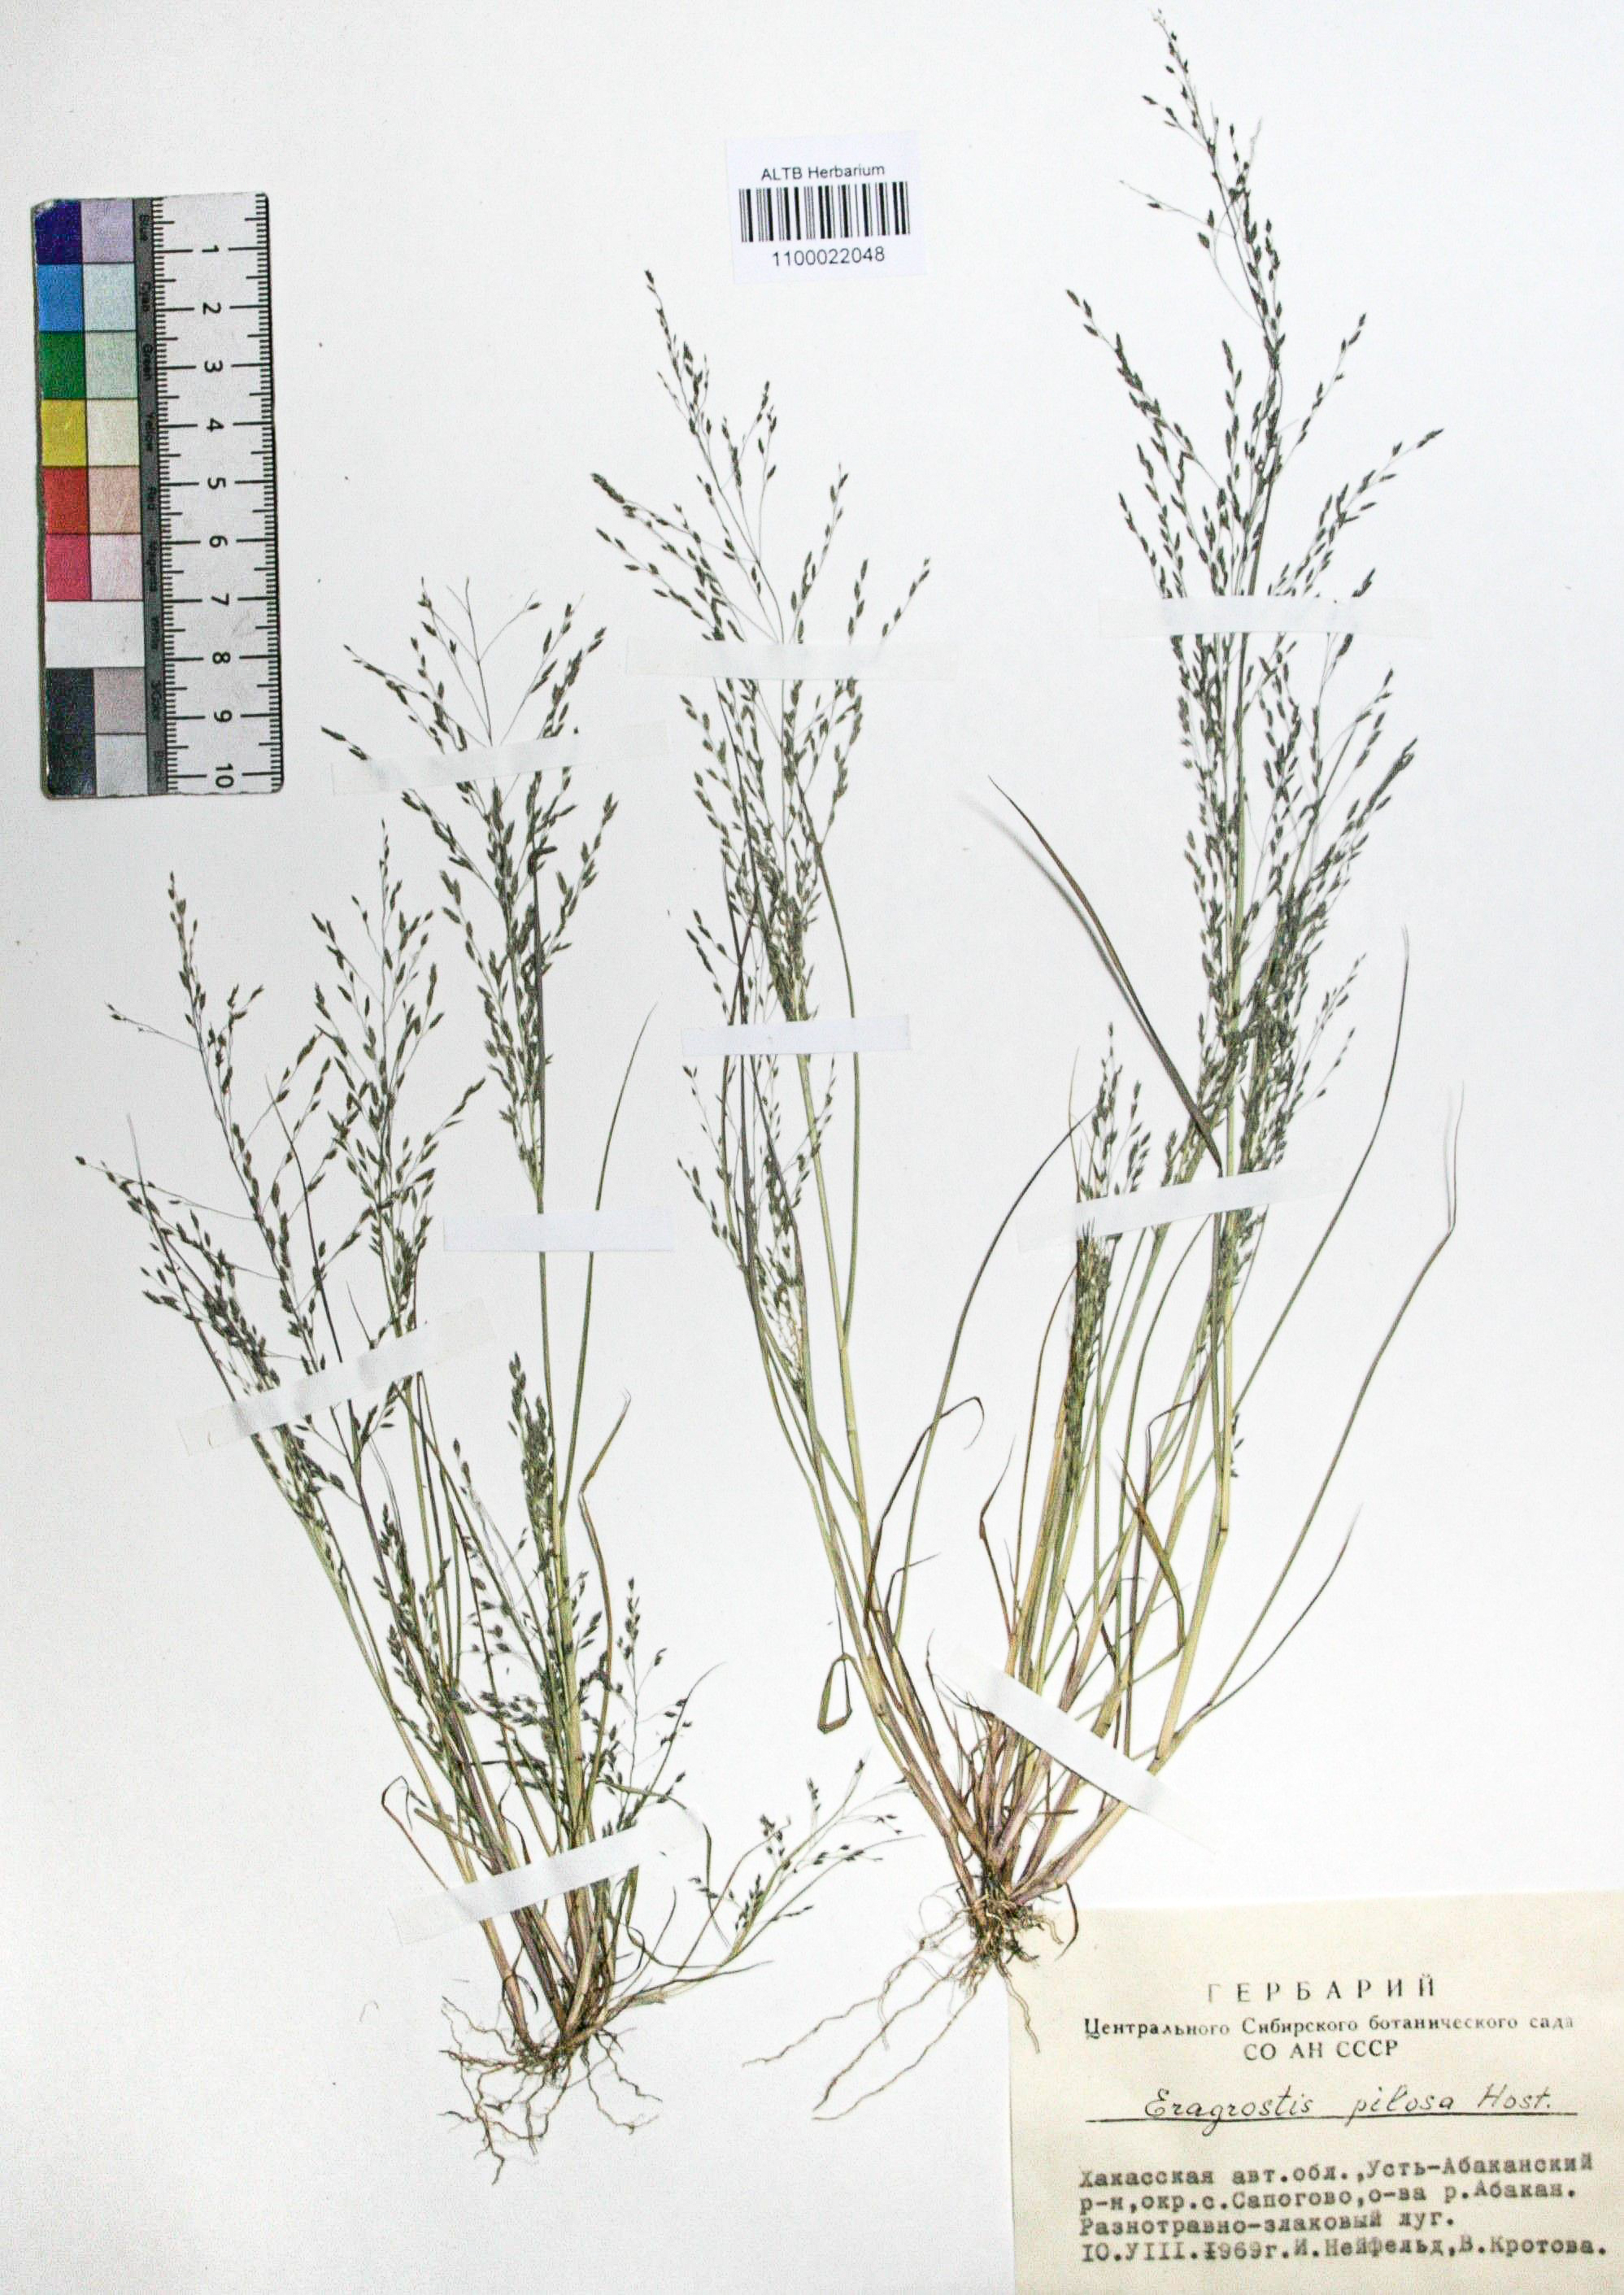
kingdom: Plantae
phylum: Tracheophyta
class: Liliopsida
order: Poales
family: Poaceae
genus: Eragrostis
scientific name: Eragrostis pilosa
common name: Indian lovegrass
